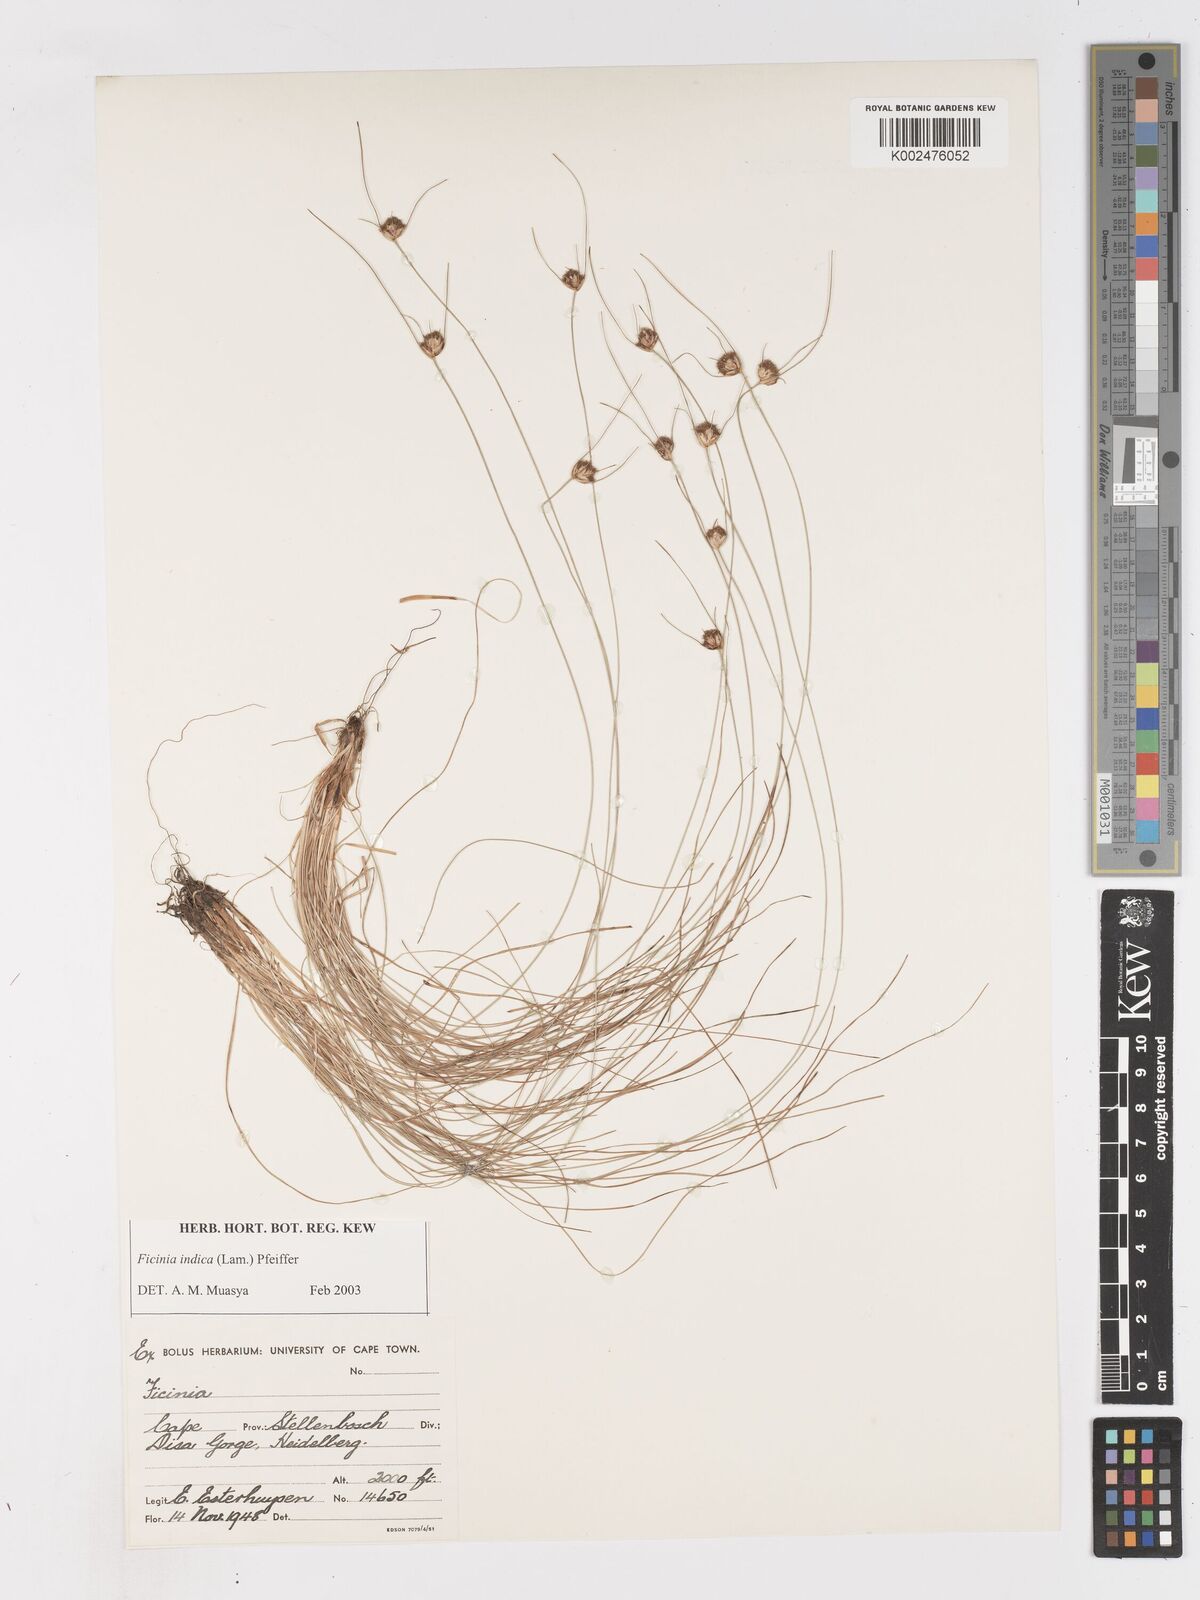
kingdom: Plantae
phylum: Tracheophyta
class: Liliopsida
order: Poales
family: Cyperaceae
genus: Ficinia
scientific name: Ficinia indica
